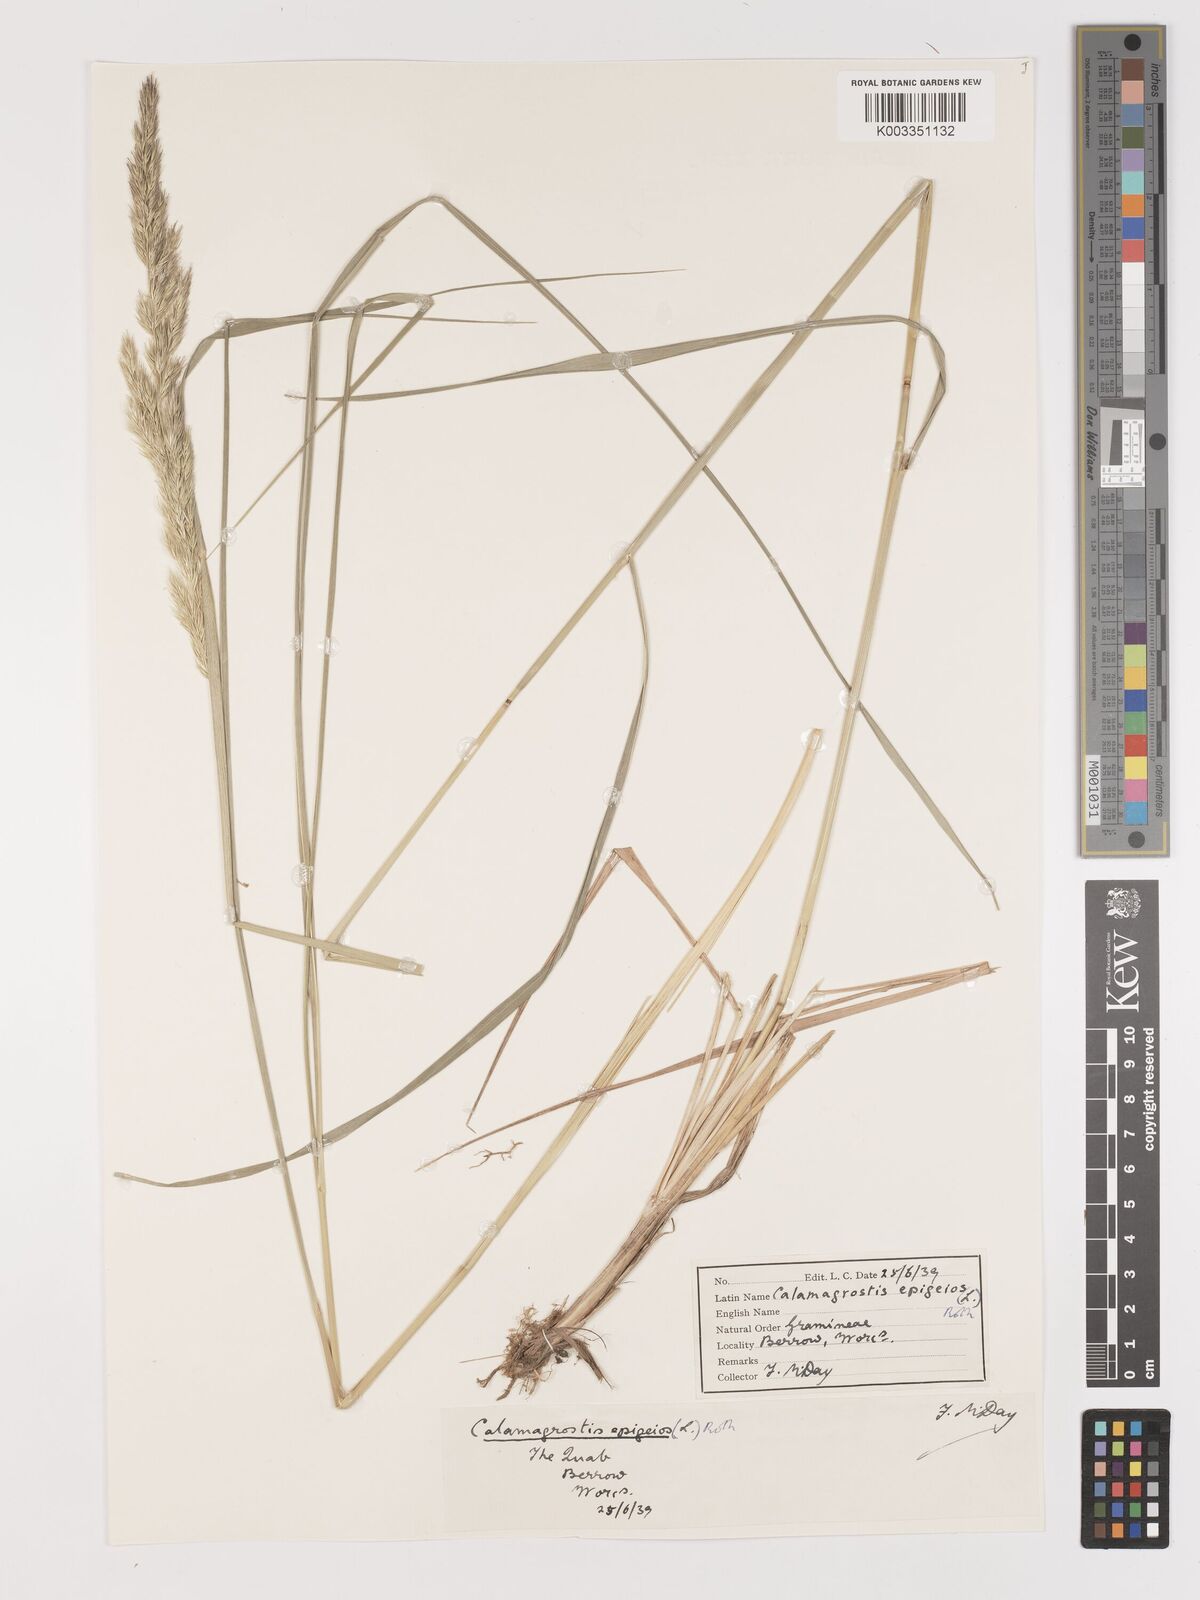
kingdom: Plantae
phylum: Tracheophyta
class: Liliopsida
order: Poales
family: Poaceae
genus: Calamagrostis
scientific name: Calamagrostis
